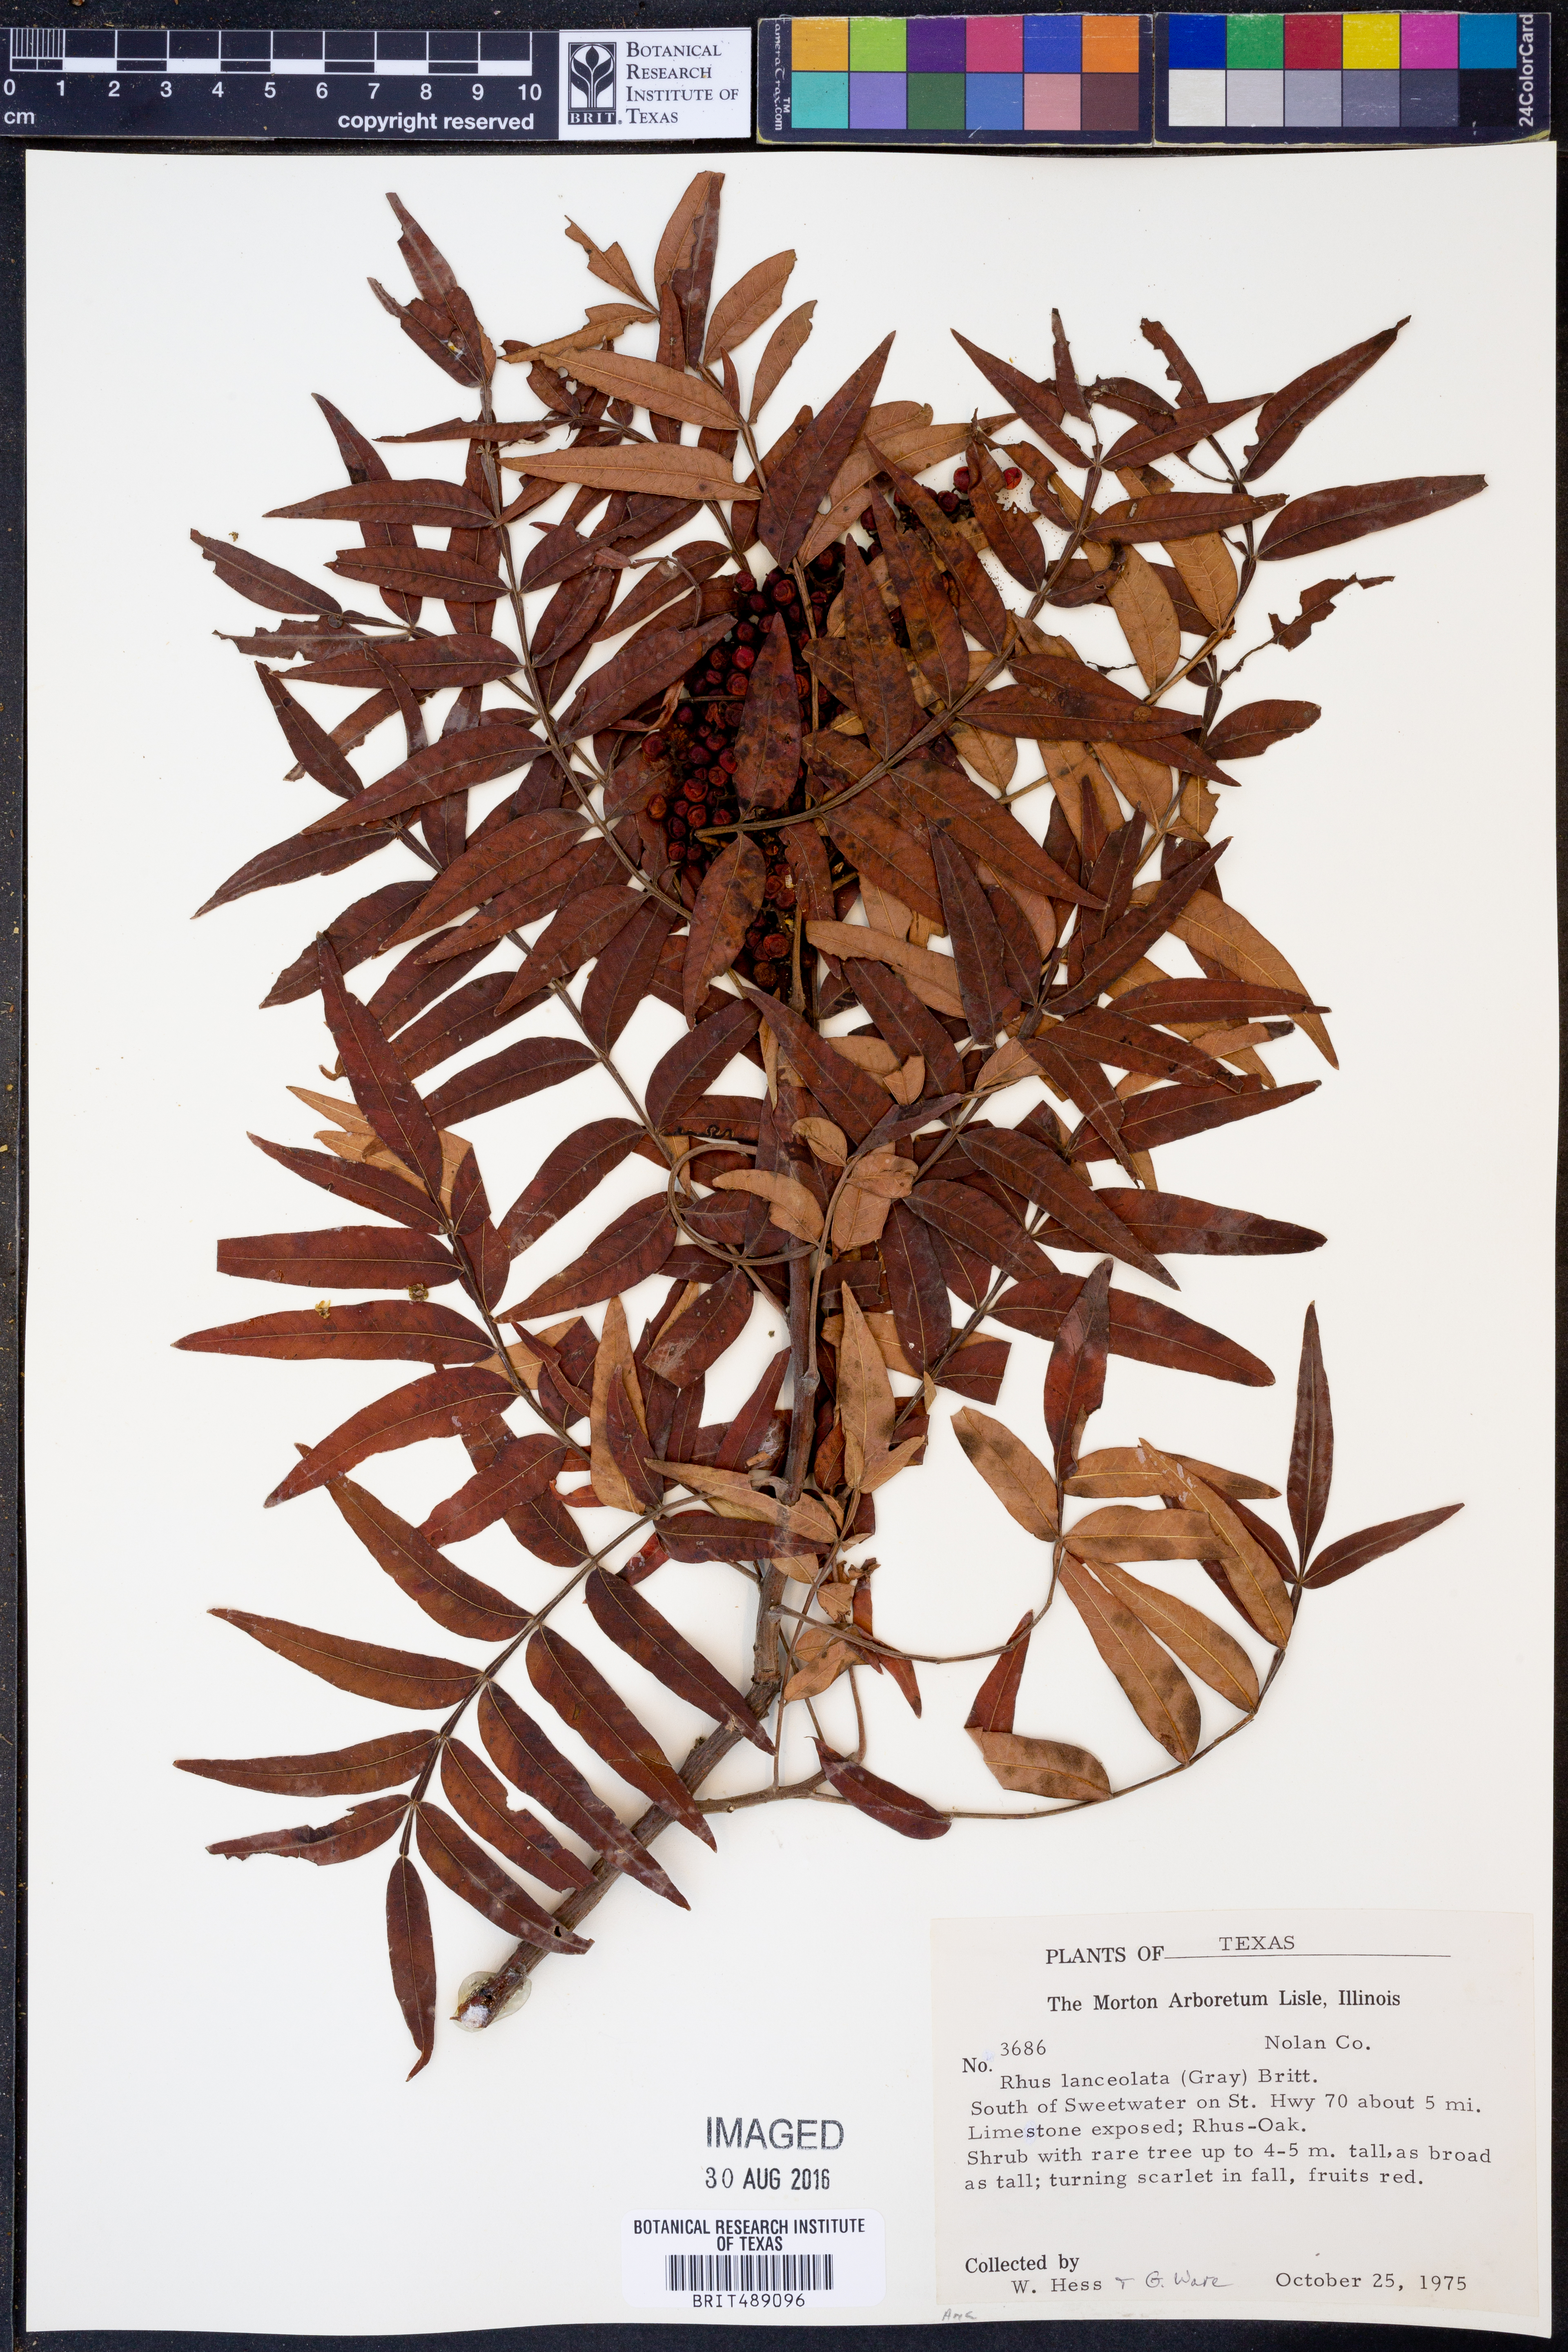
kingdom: Plantae
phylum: Tracheophyta
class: Magnoliopsida
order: Sapindales
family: Anacardiaceae
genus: Rhus
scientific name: Rhus lanceolata
